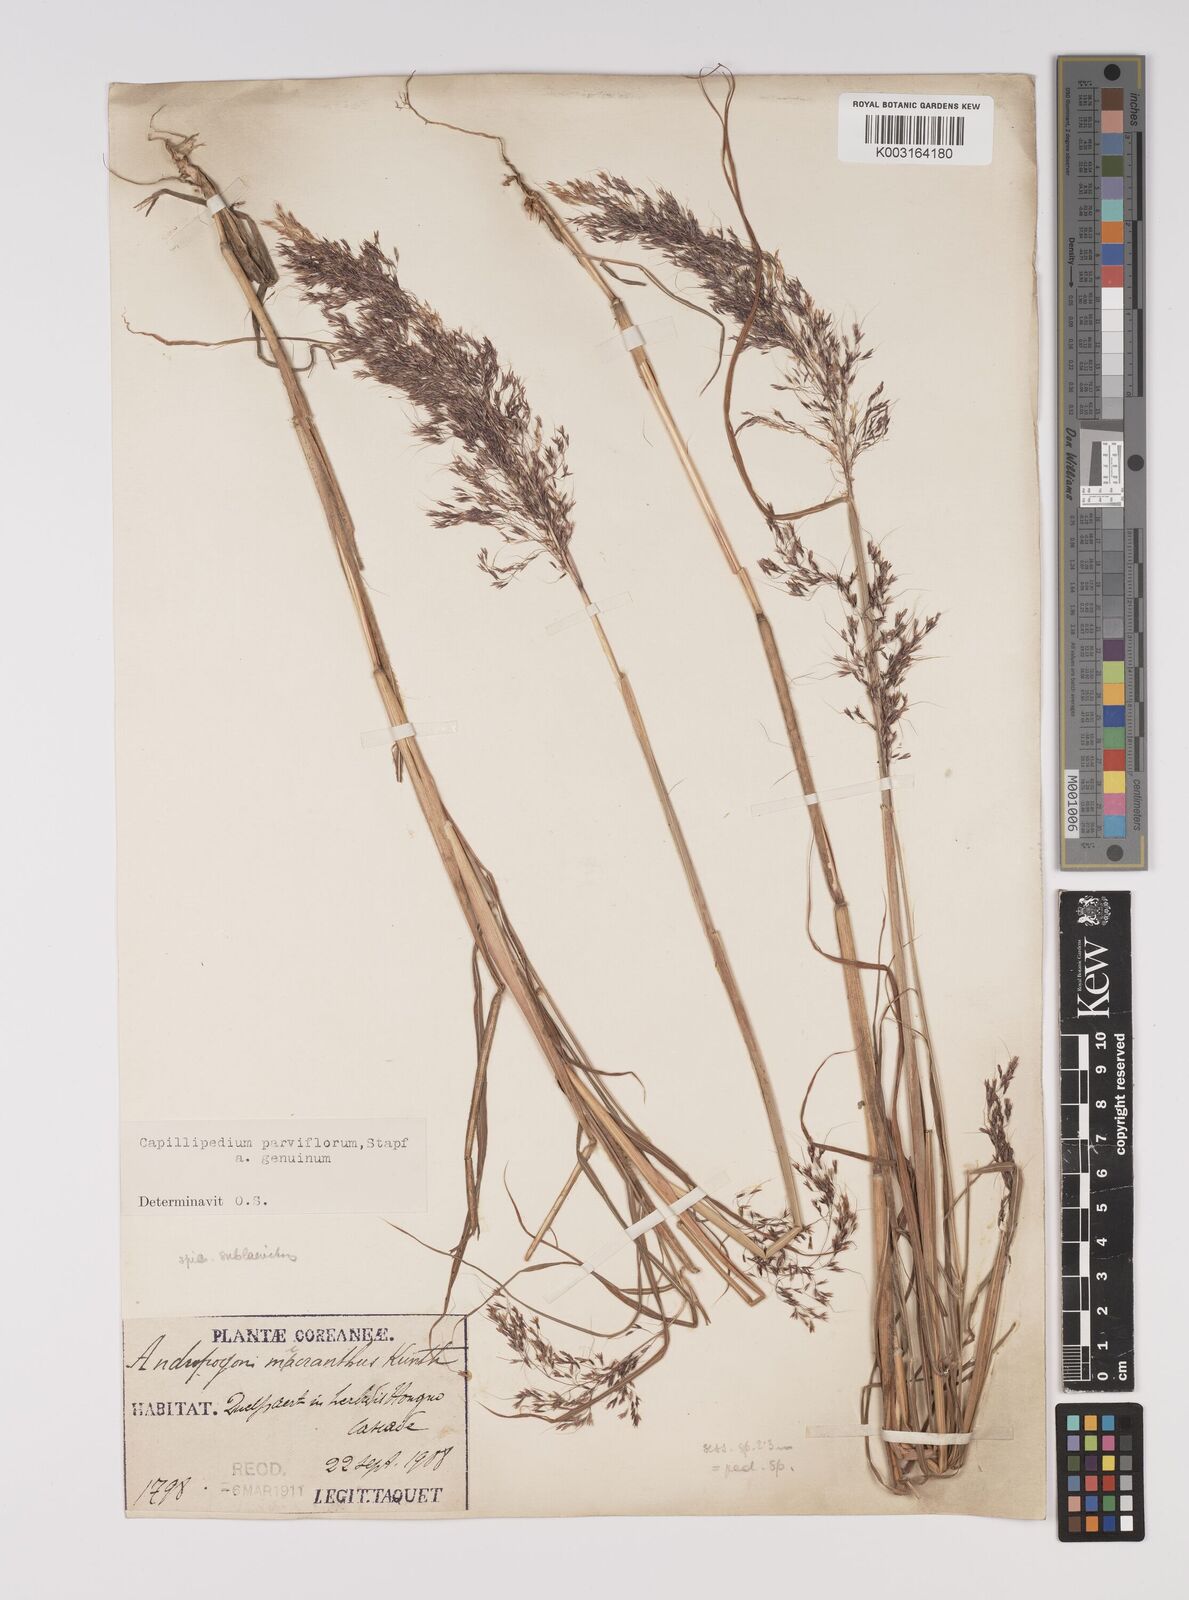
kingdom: Plantae
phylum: Tracheophyta
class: Liliopsida
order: Poales
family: Poaceae
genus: Capillipedium
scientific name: Capillipedium parviflorum
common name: Golden-beard
